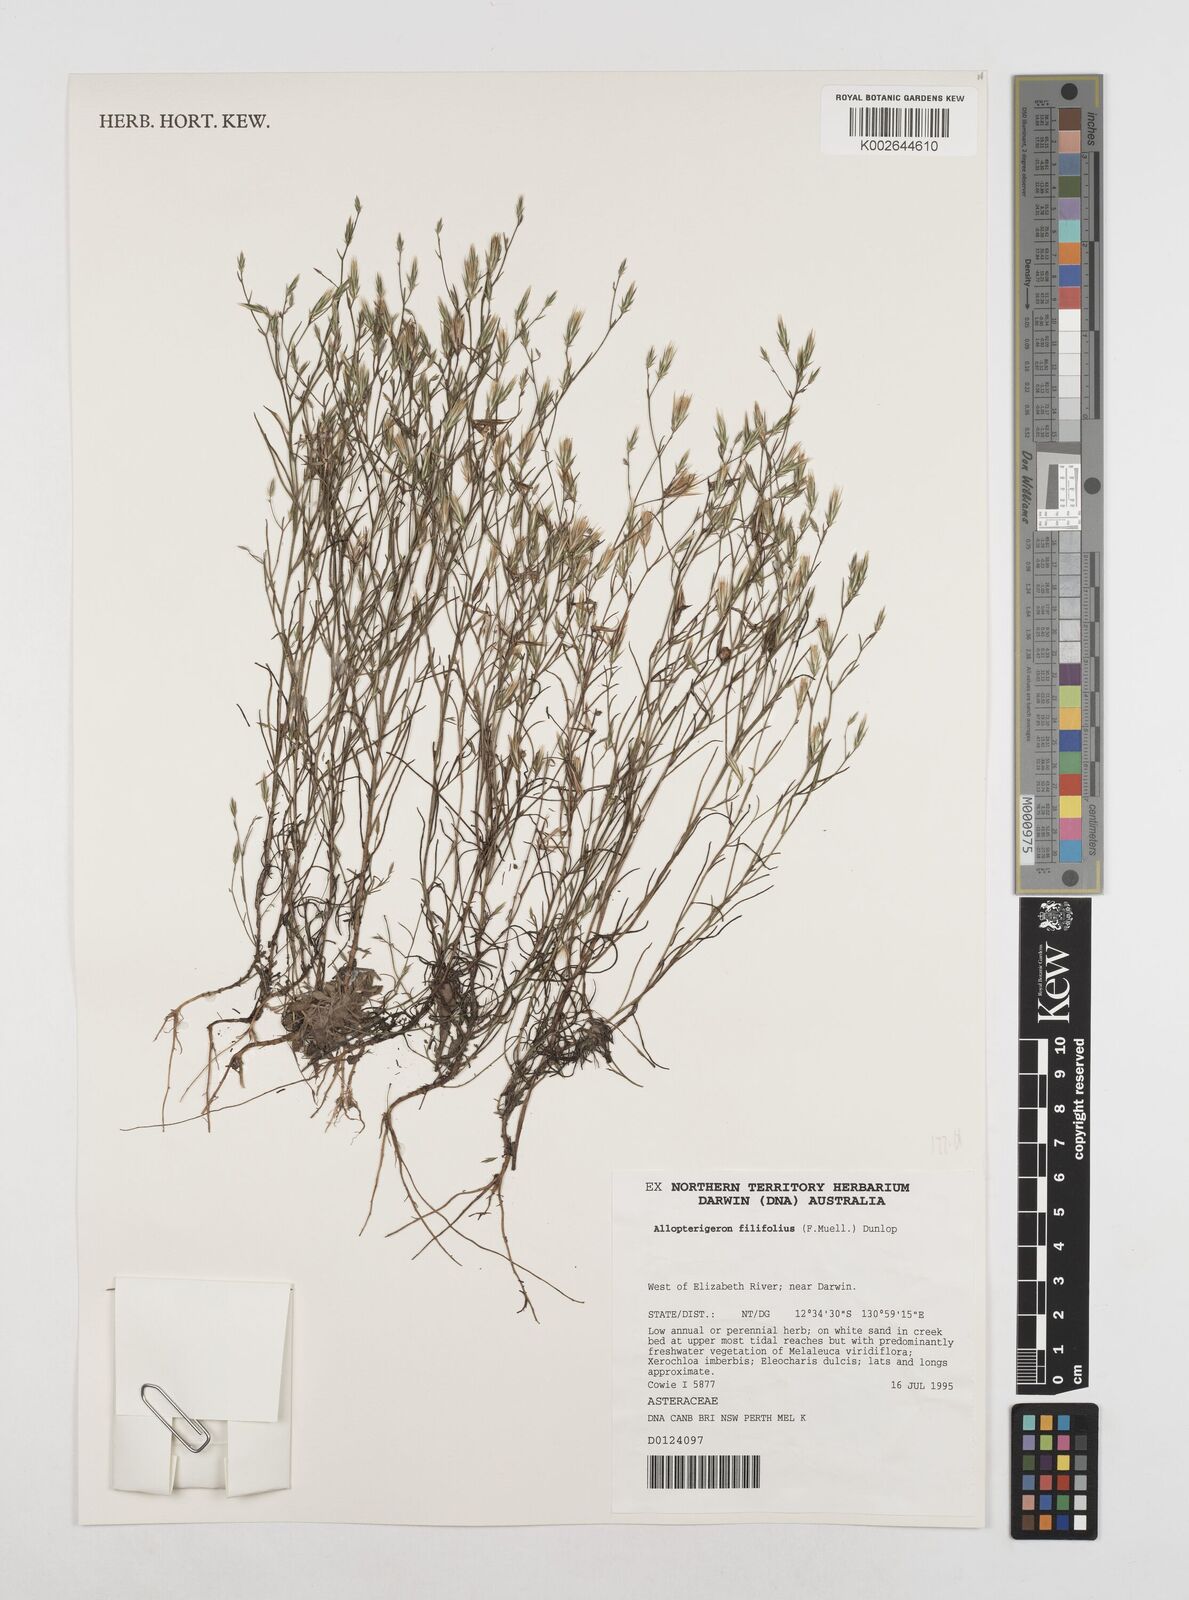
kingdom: Plantae
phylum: Tracheophyta
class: Magnoliopsida
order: Asterales
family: Asteraceae
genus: Allopterigeron
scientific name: Allopterigeron filifolius
